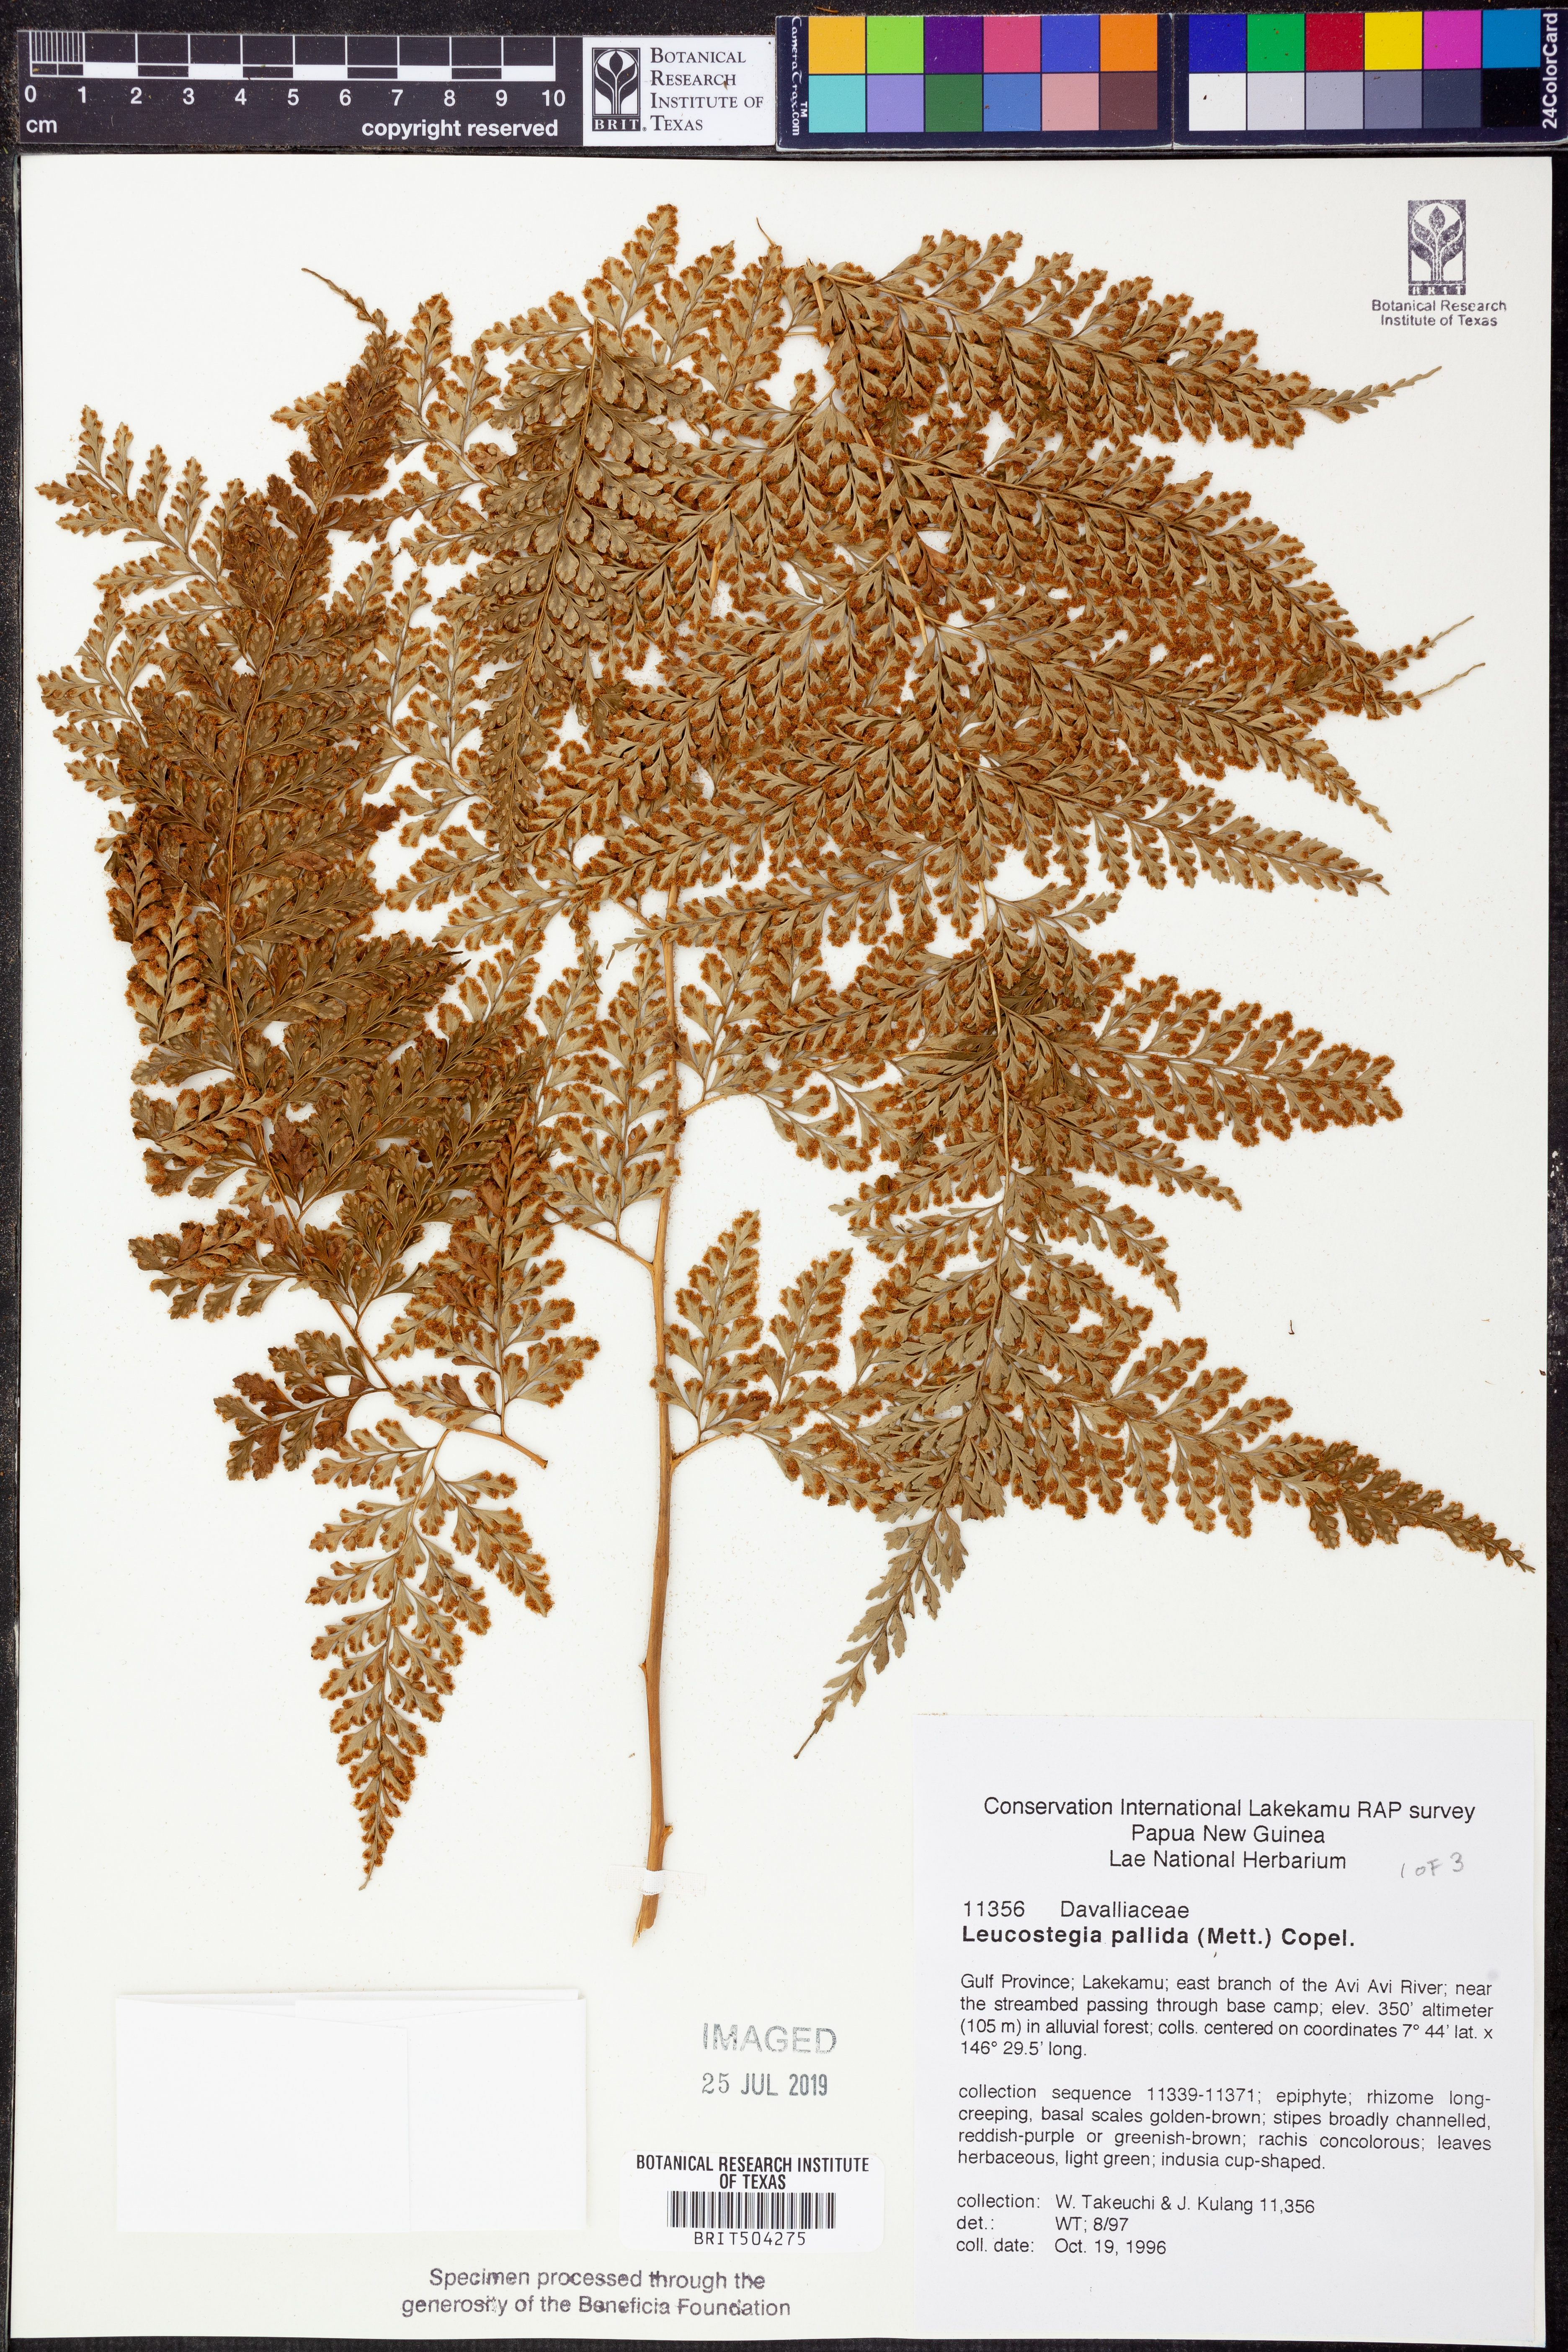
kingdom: Plantae
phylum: Tracheophyta
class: Polypodiopsida
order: Polypodiales
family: Hypodematiaceae
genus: Leucostegia
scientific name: Leucostegia pallida
